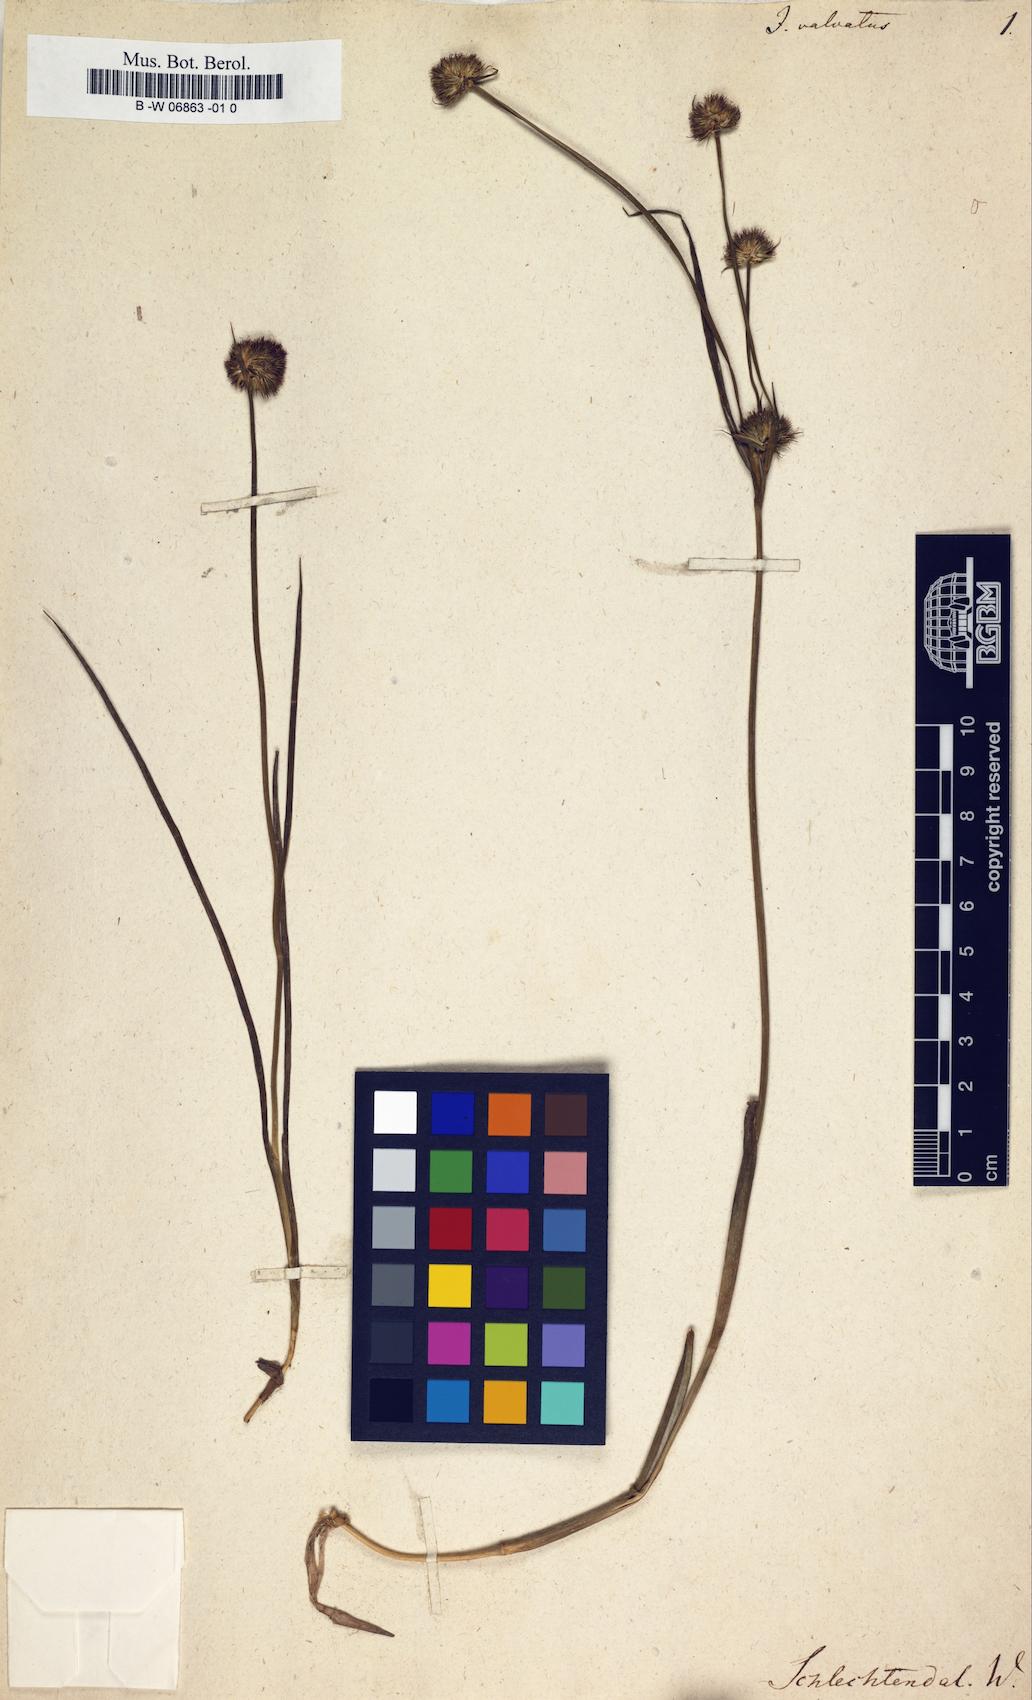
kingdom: Plantae
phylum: Tracheophyta
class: Liliopsida
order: Poales
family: Juncaceae
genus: Juncus
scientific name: Juncus valvatus
